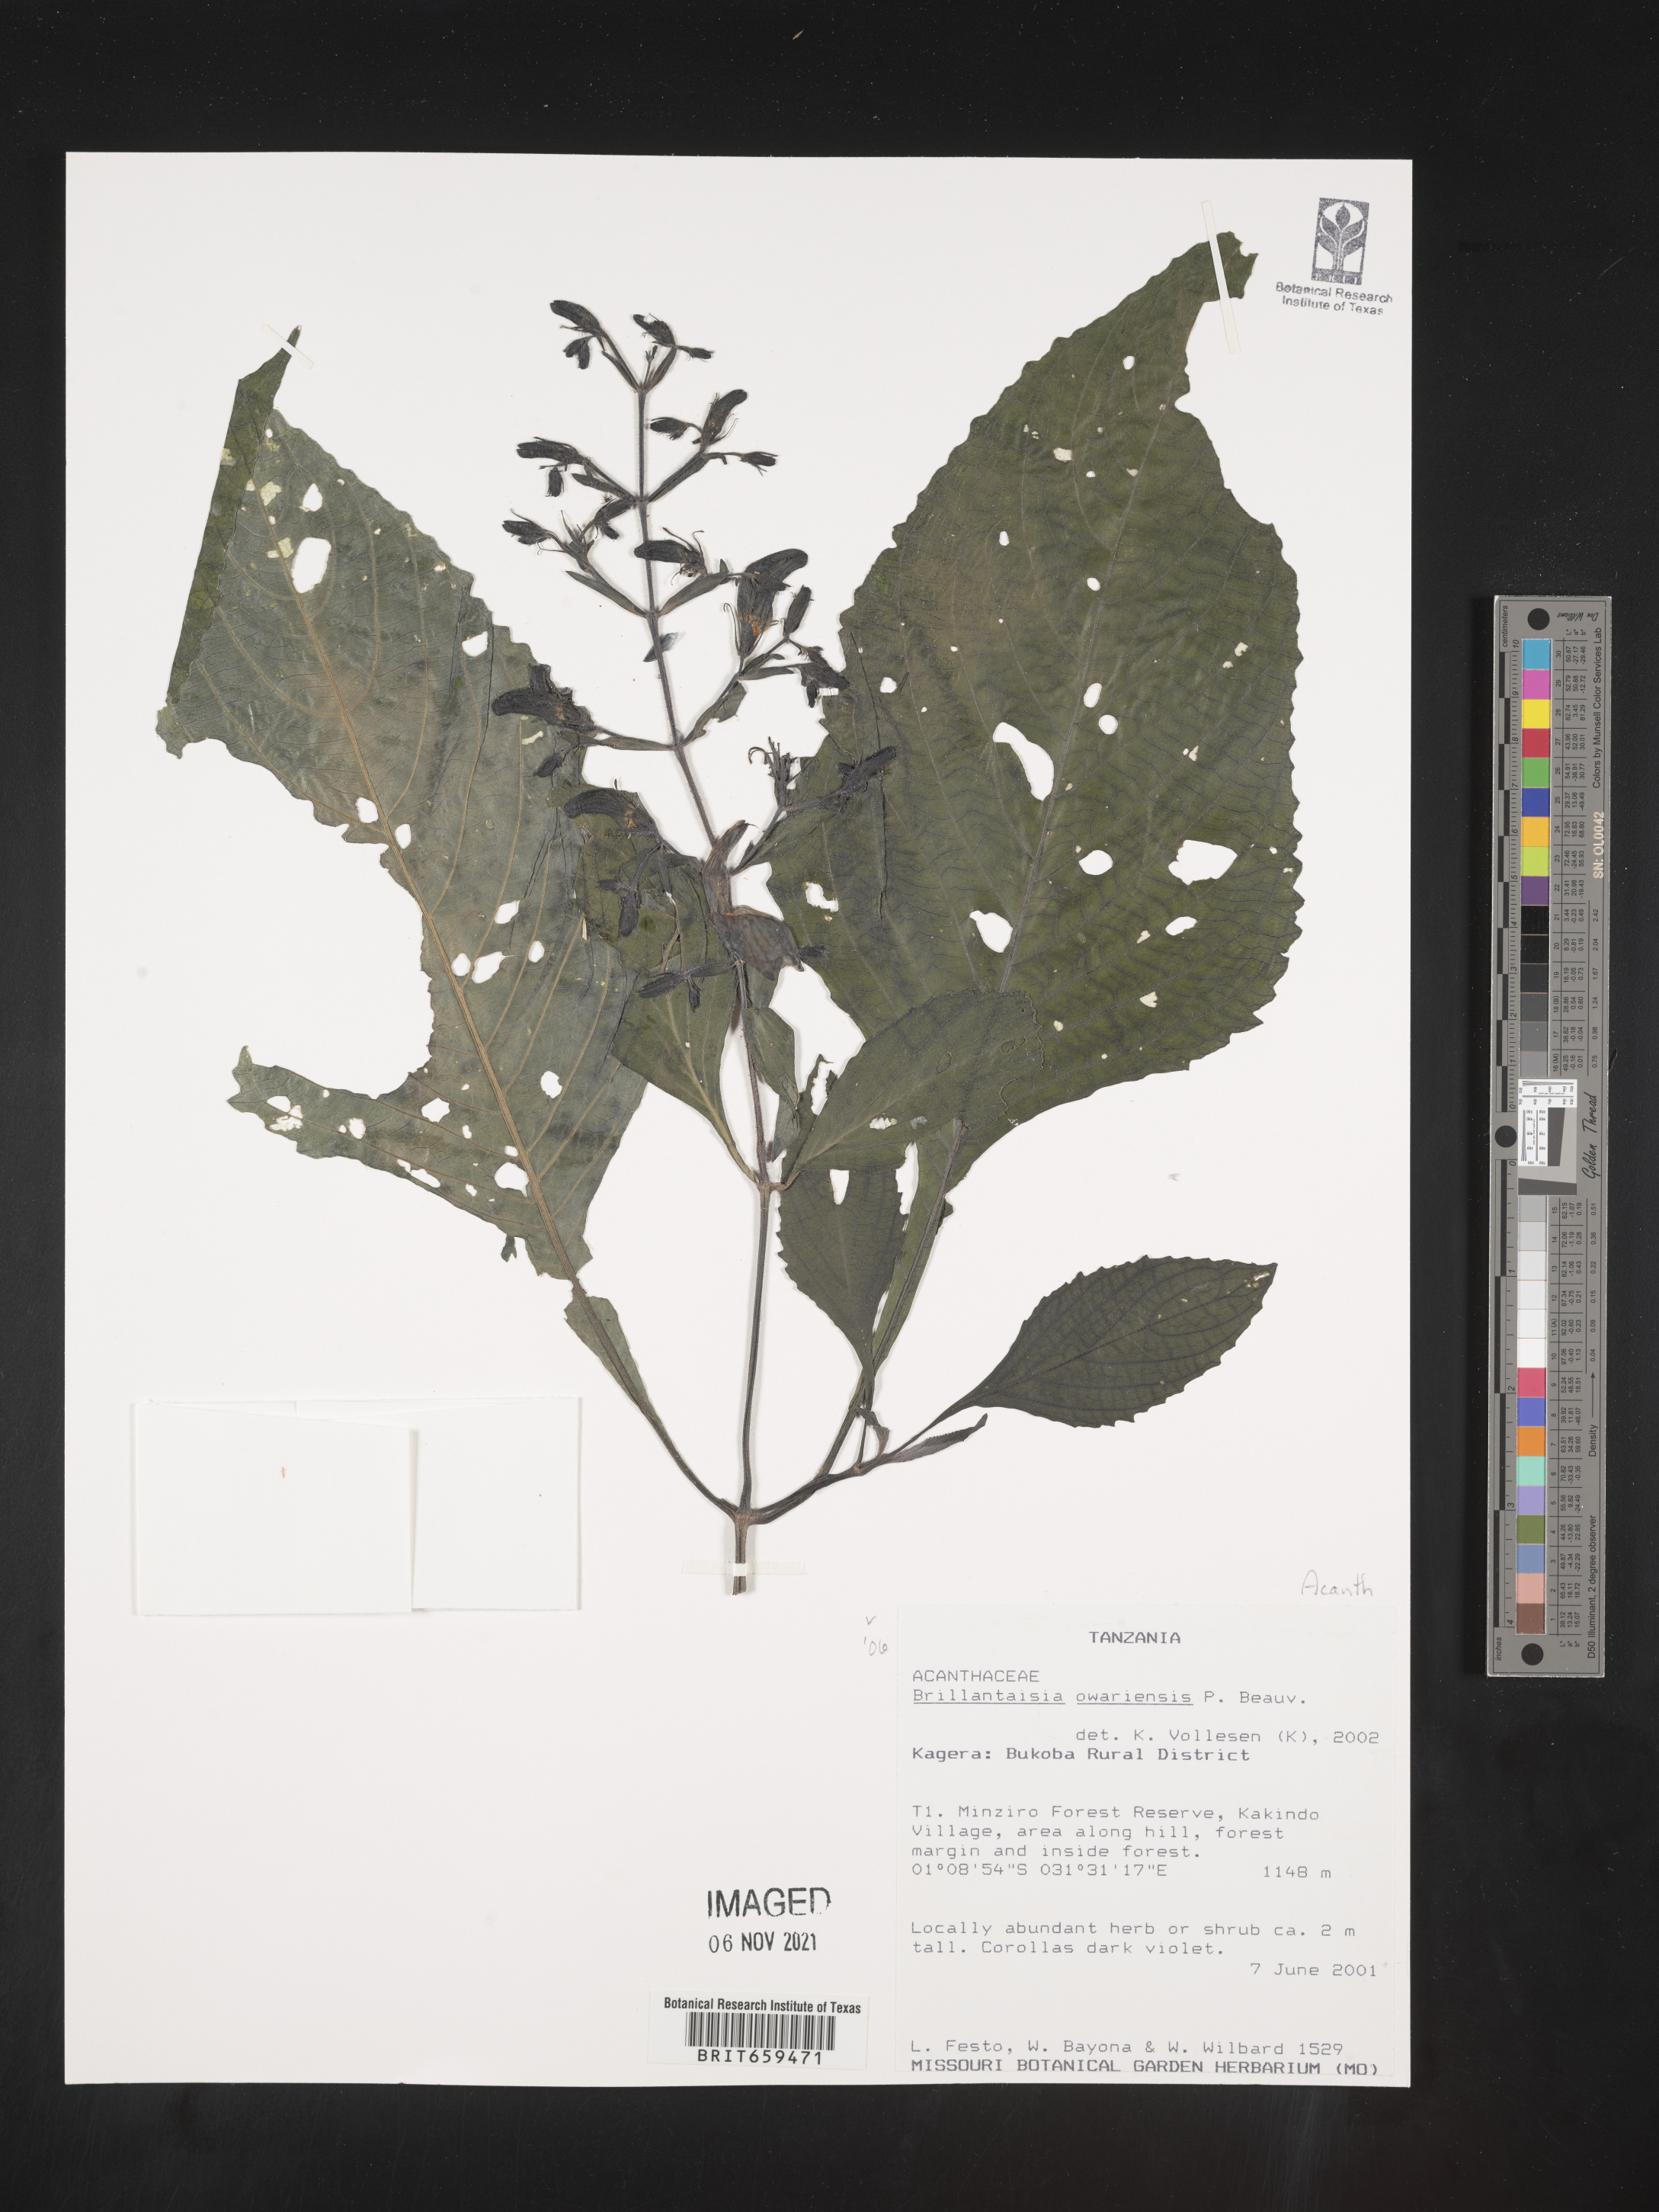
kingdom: Plantae
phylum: Tracheophyta
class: Magnoliopsida
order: Lamiales
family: Acanthaceae
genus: Brillantaisia
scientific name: Brillantaisia owariensis
